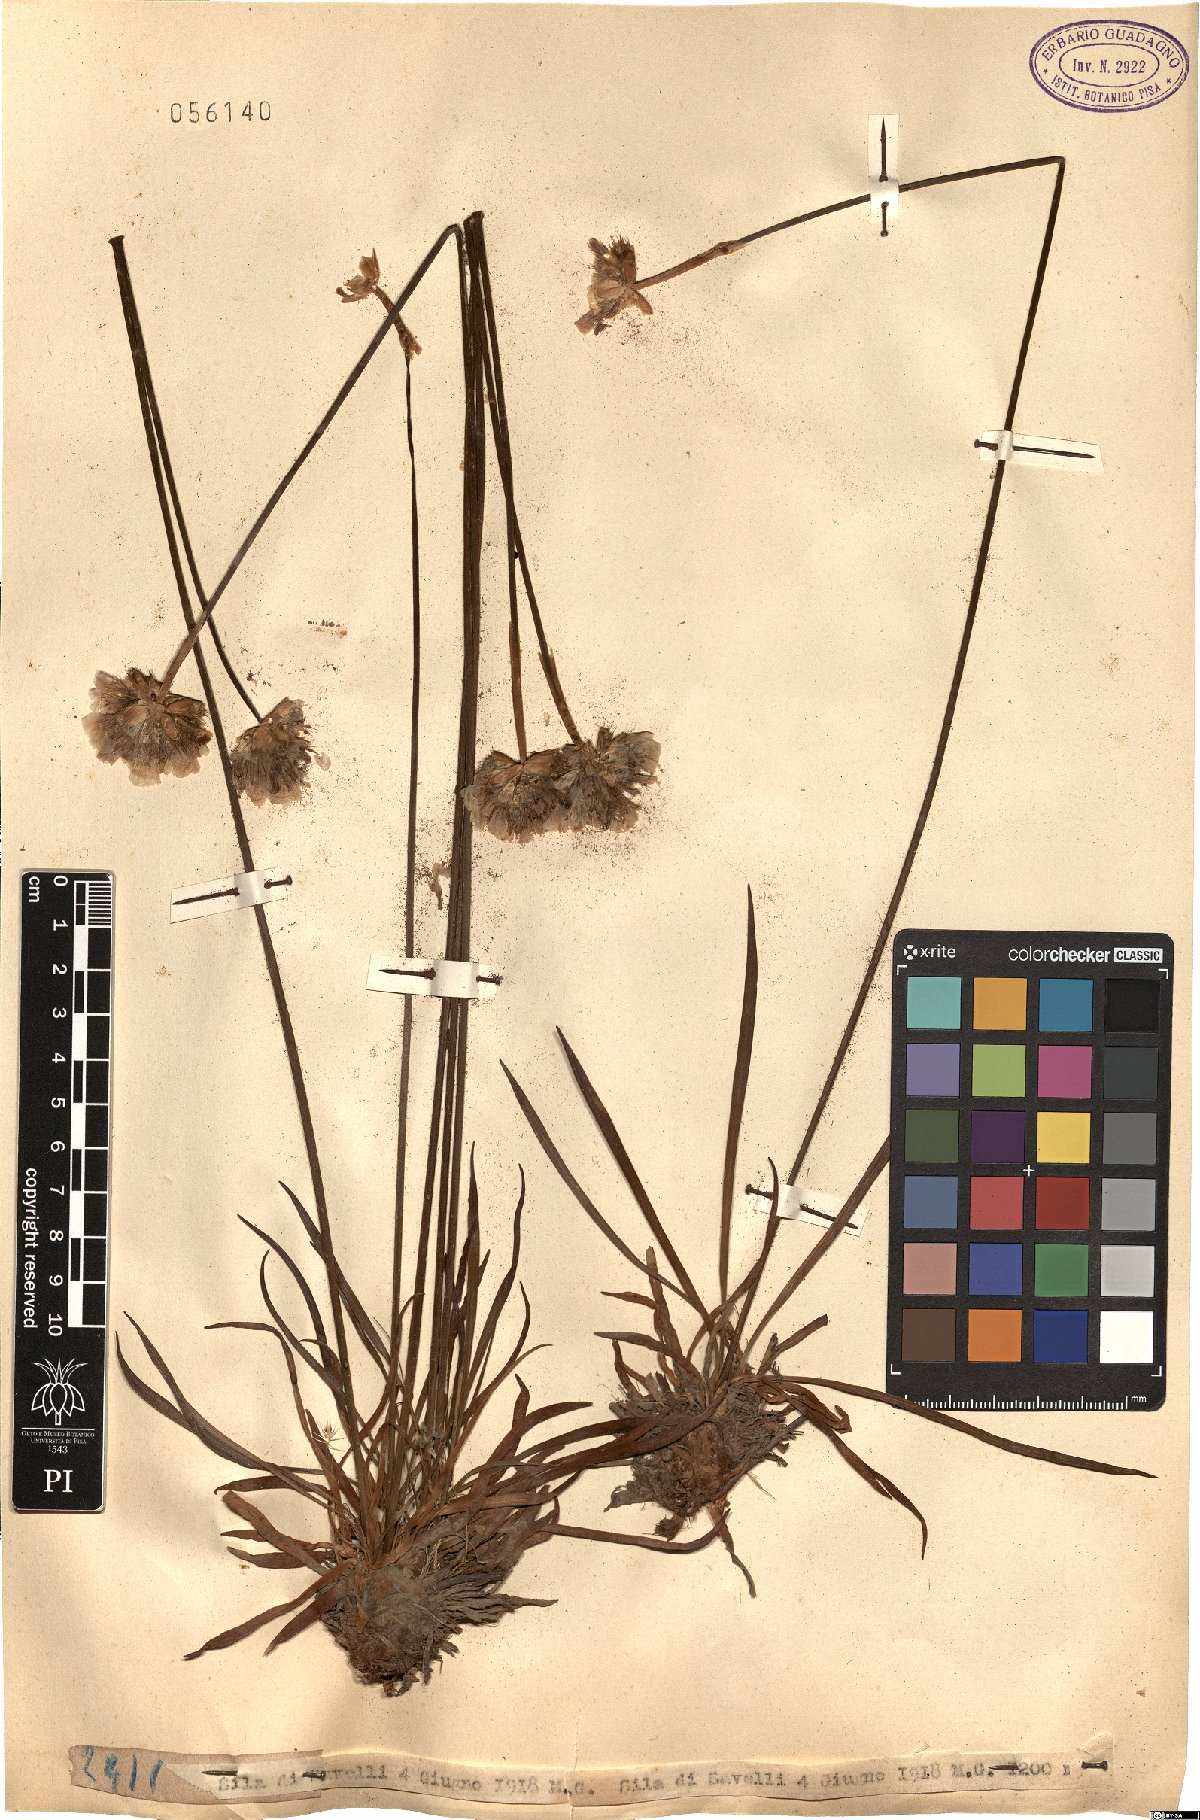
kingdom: Plantae
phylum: Tracheophyta
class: Magnoliopsida
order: Caryophyllales
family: Plumbaginaceae
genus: Armeria
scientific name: Armeria
